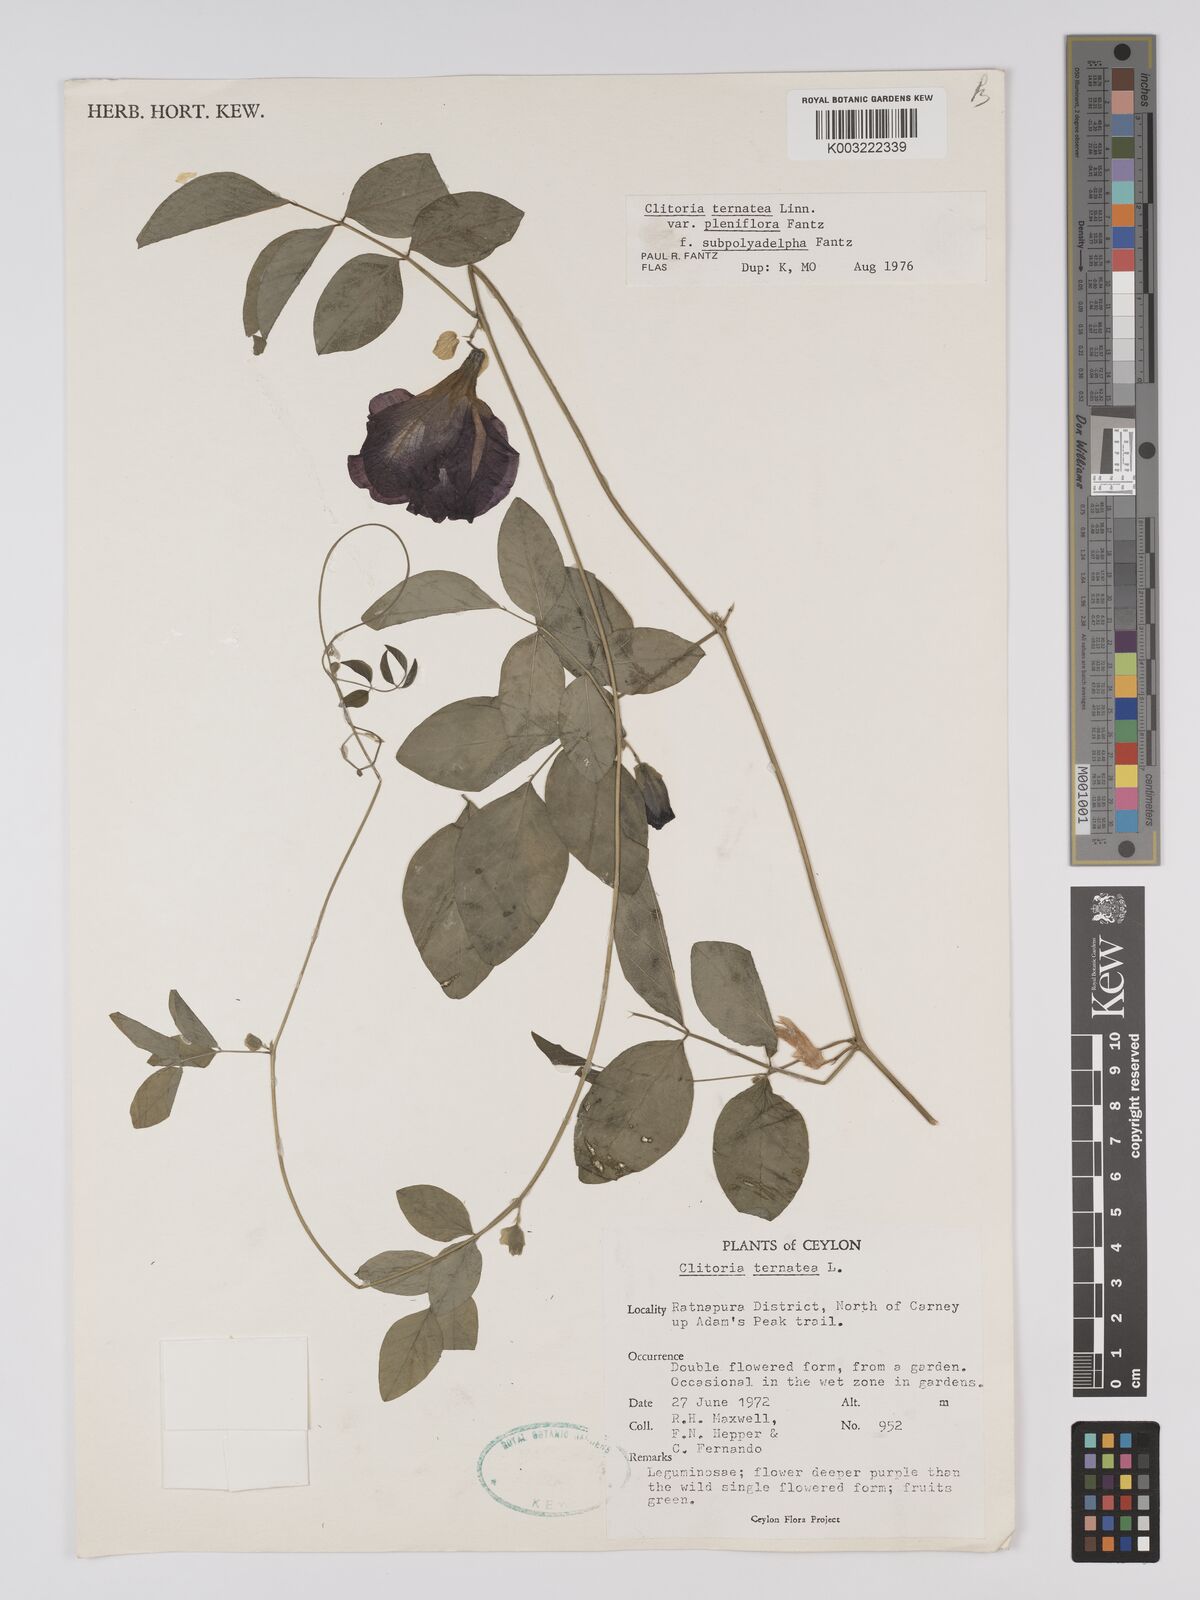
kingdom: Plantae
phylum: Tracheophyta
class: Magnoliopsida
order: Fabales
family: Fabaceae
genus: Clitoria
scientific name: Clitoria ternatea
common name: Asian pigeonwings
